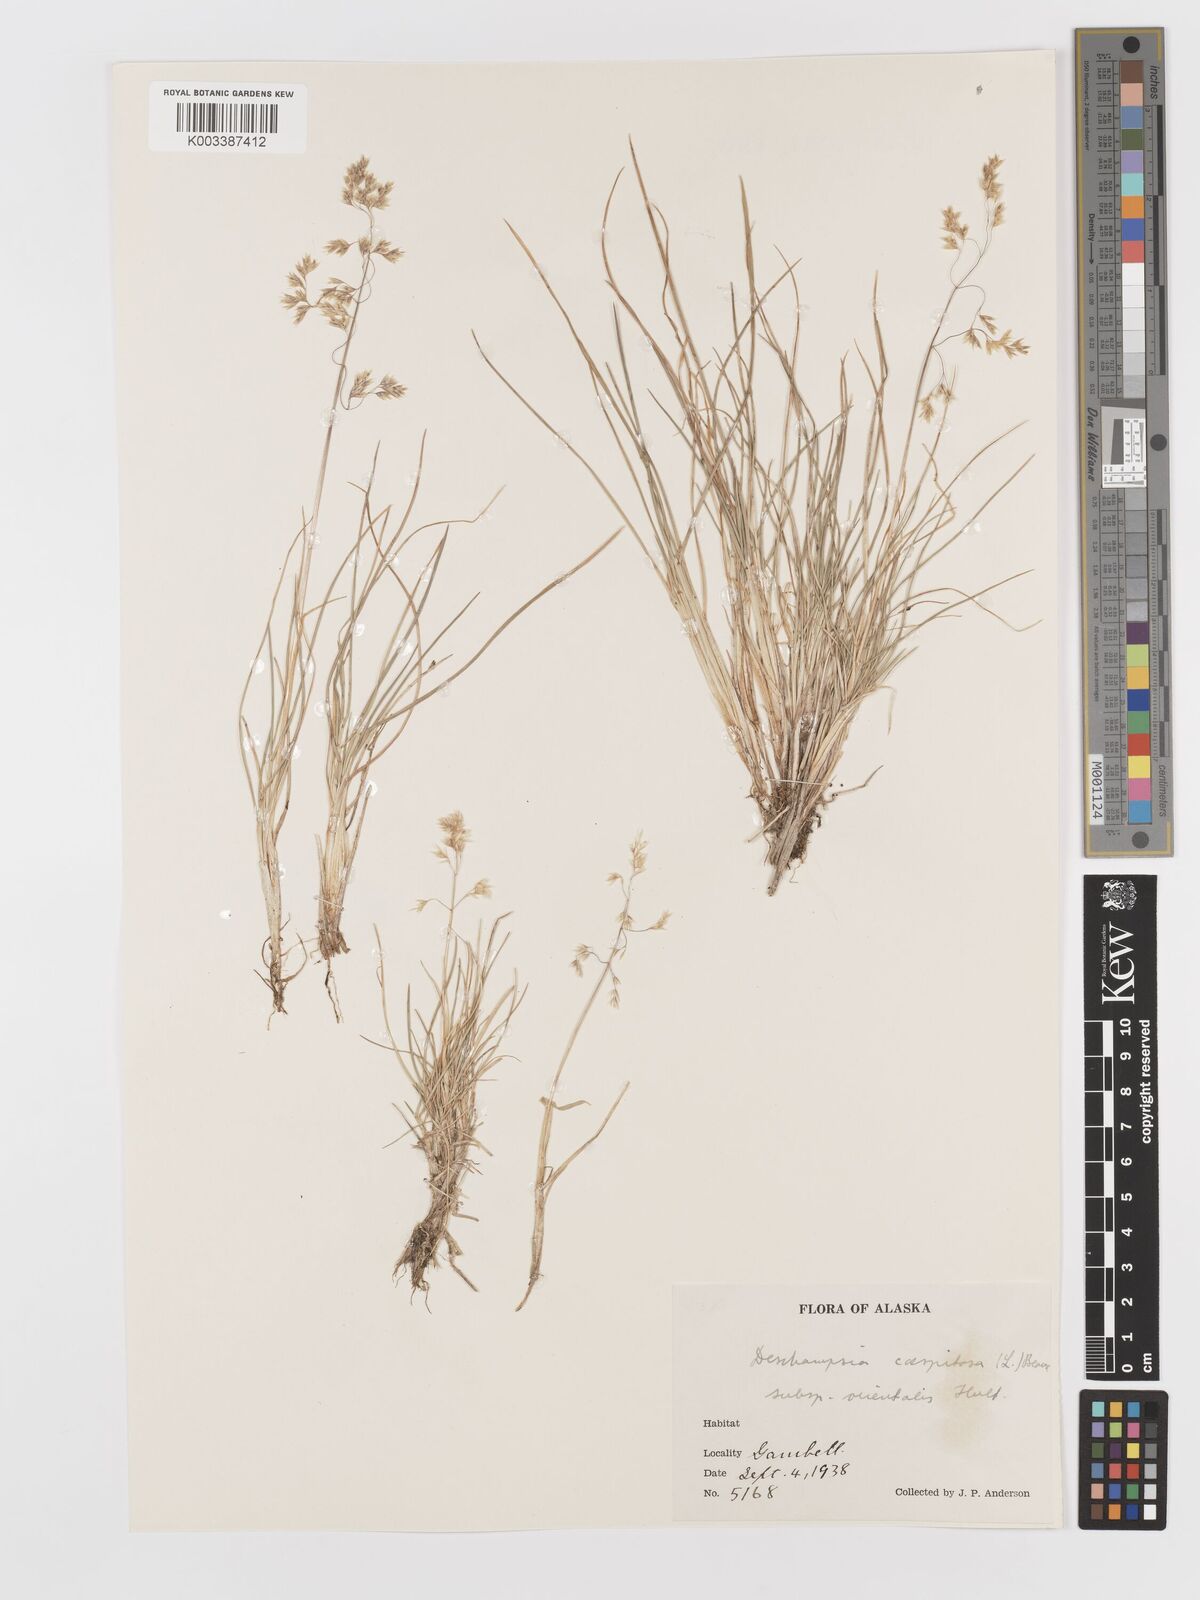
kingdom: Plantae
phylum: Tracheophyta
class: Liliopsida
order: Poales
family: Poaceae
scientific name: Poaceae
